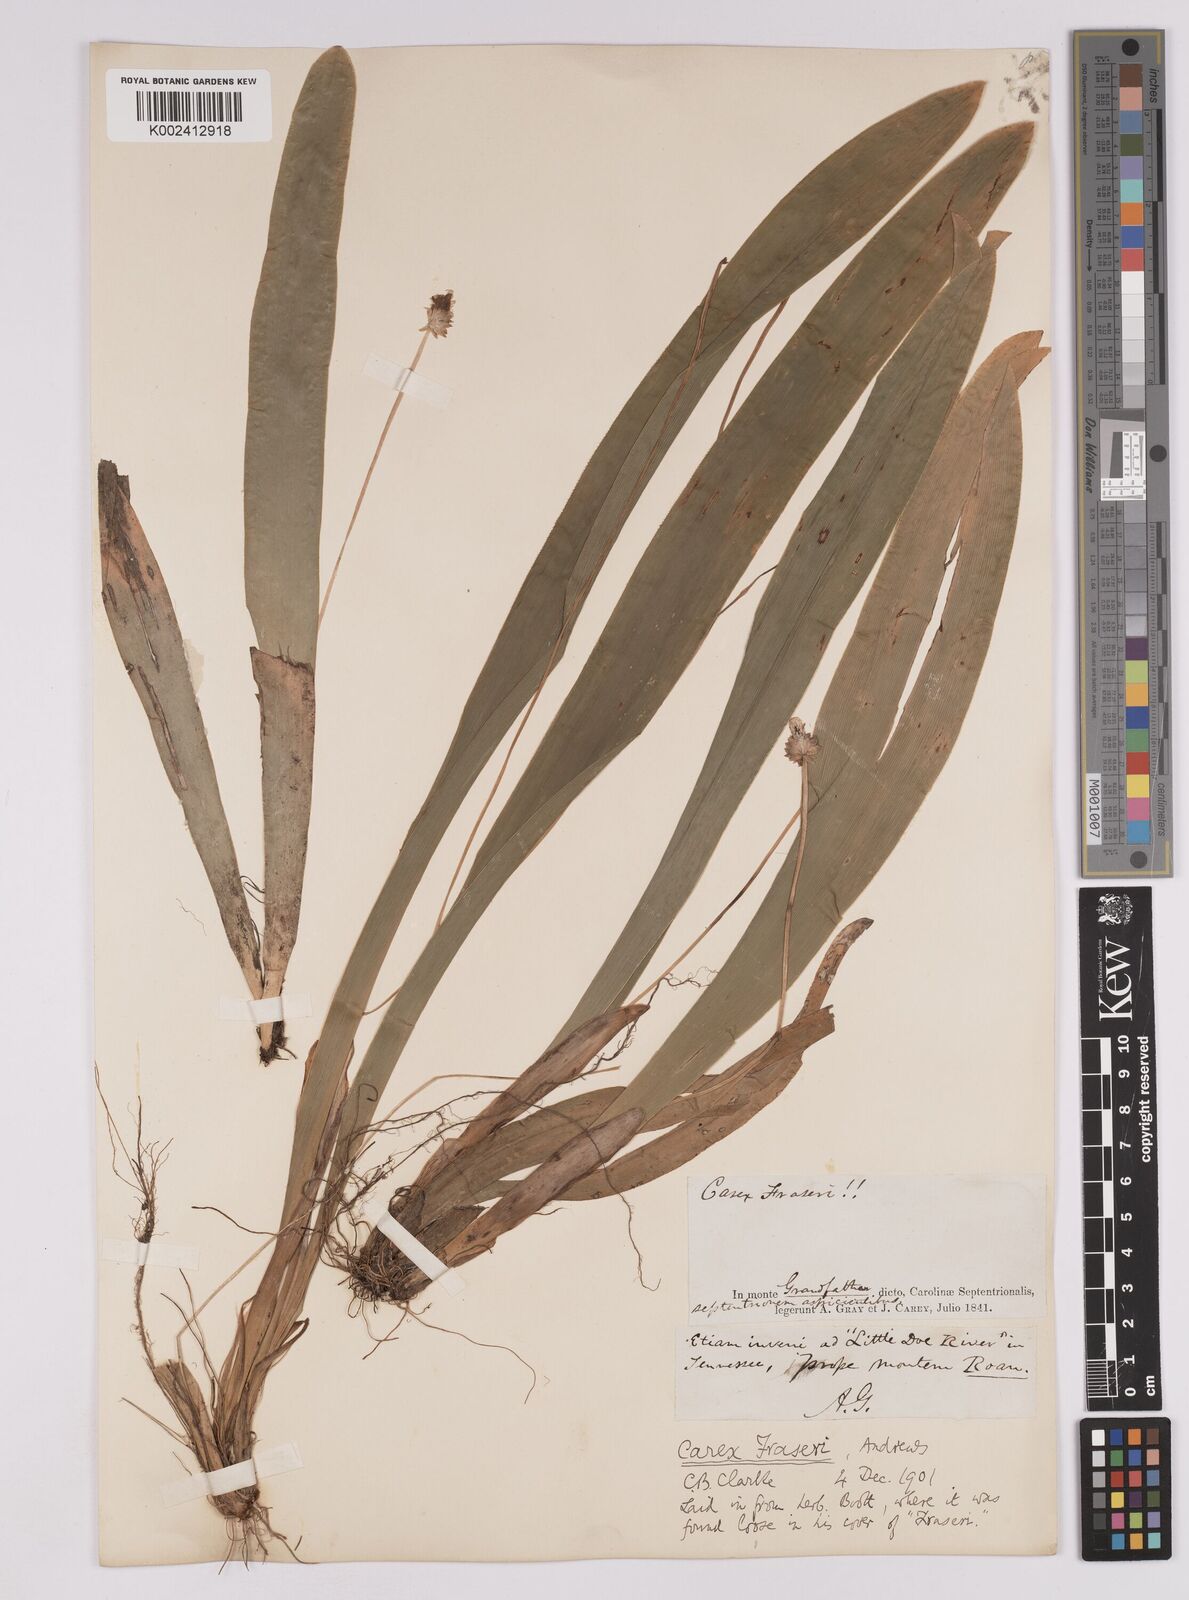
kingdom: Plantae
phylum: Tracheophyta
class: Liliopsida
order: Poales
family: Cyperaceae
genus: Carex
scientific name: Carex fraseriana
